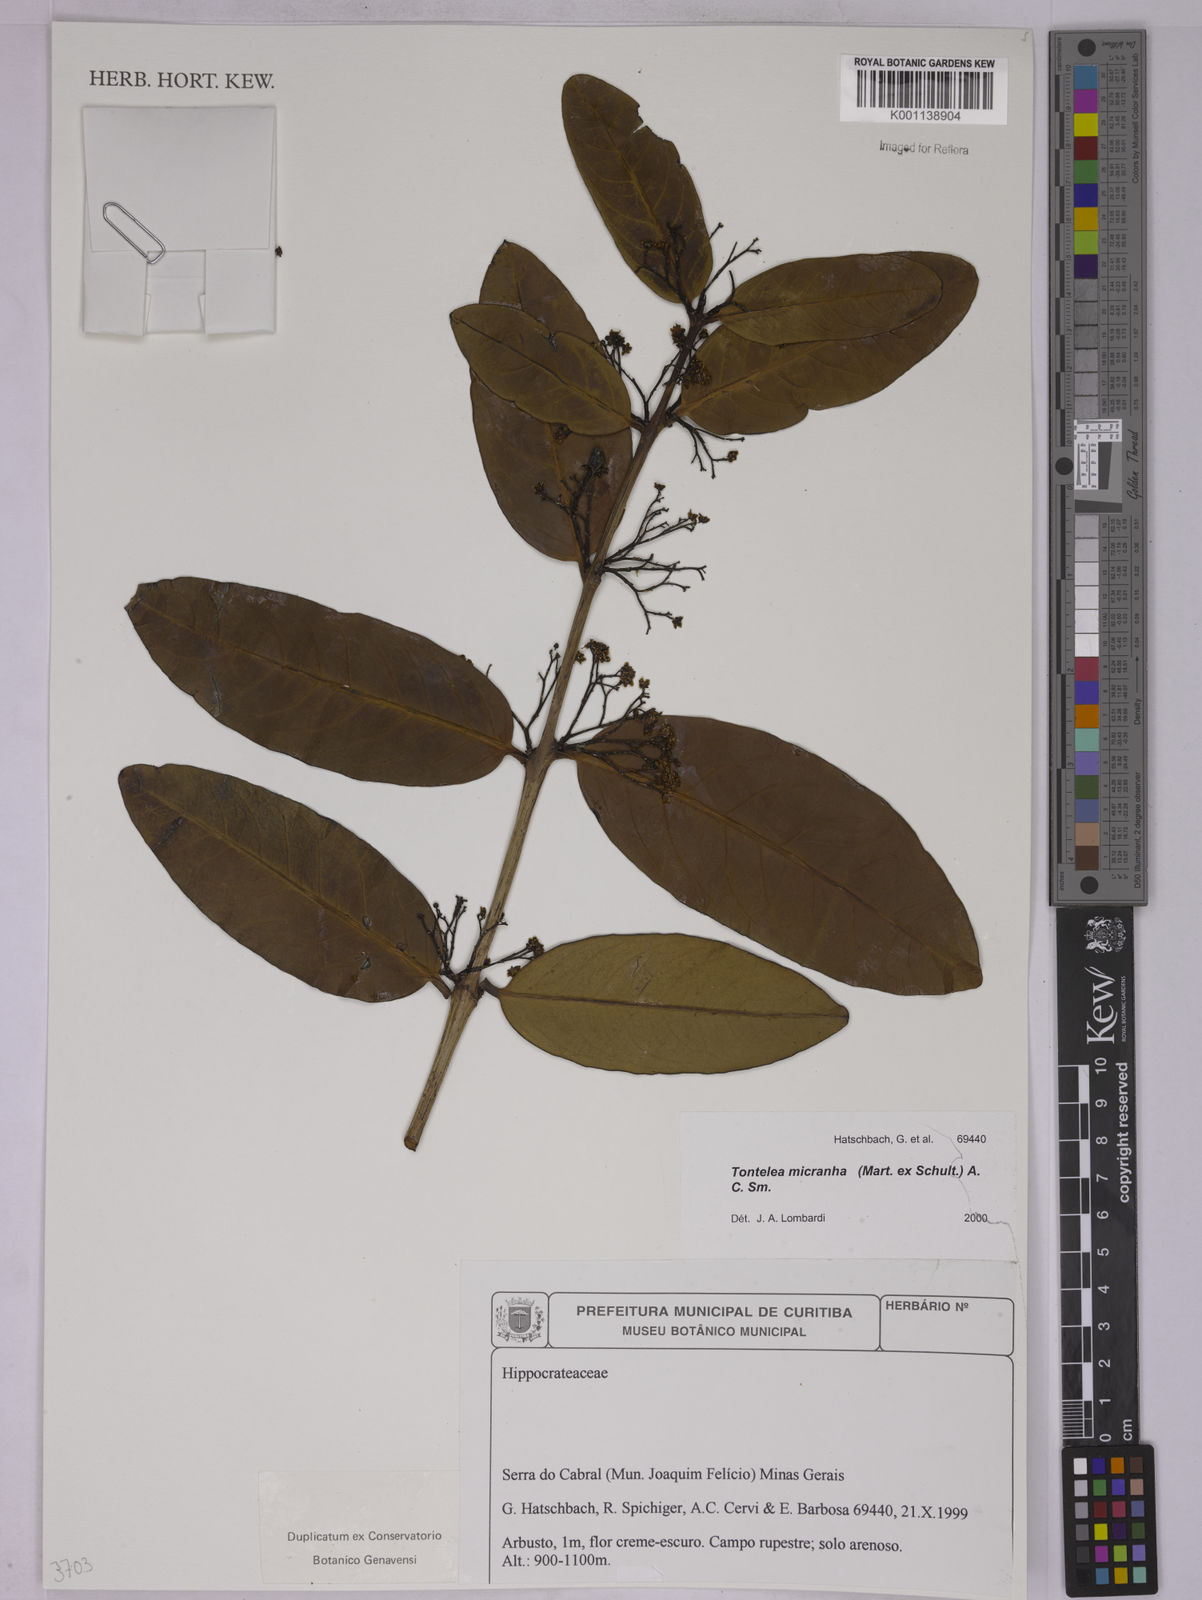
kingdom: Plantae
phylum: Tracheophyta
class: Magnoliopsida
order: Celastrales
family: Celastraceae
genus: Tontelea
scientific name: Tontelea micrantha
